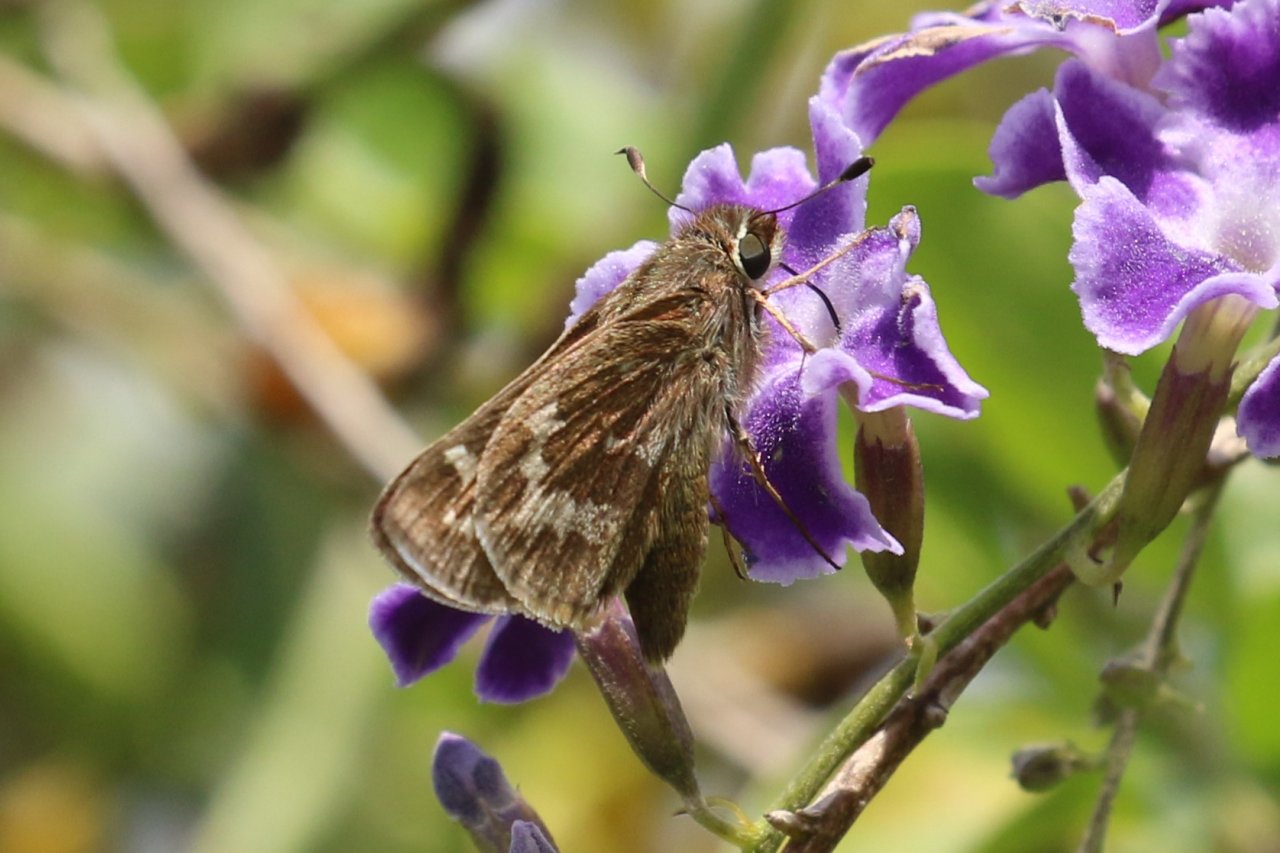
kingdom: Animalia
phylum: Arthropoda
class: Insecta
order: Lepidoptera
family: Hesperiidae
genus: Atalopedes
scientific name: Atalopedes campestris
